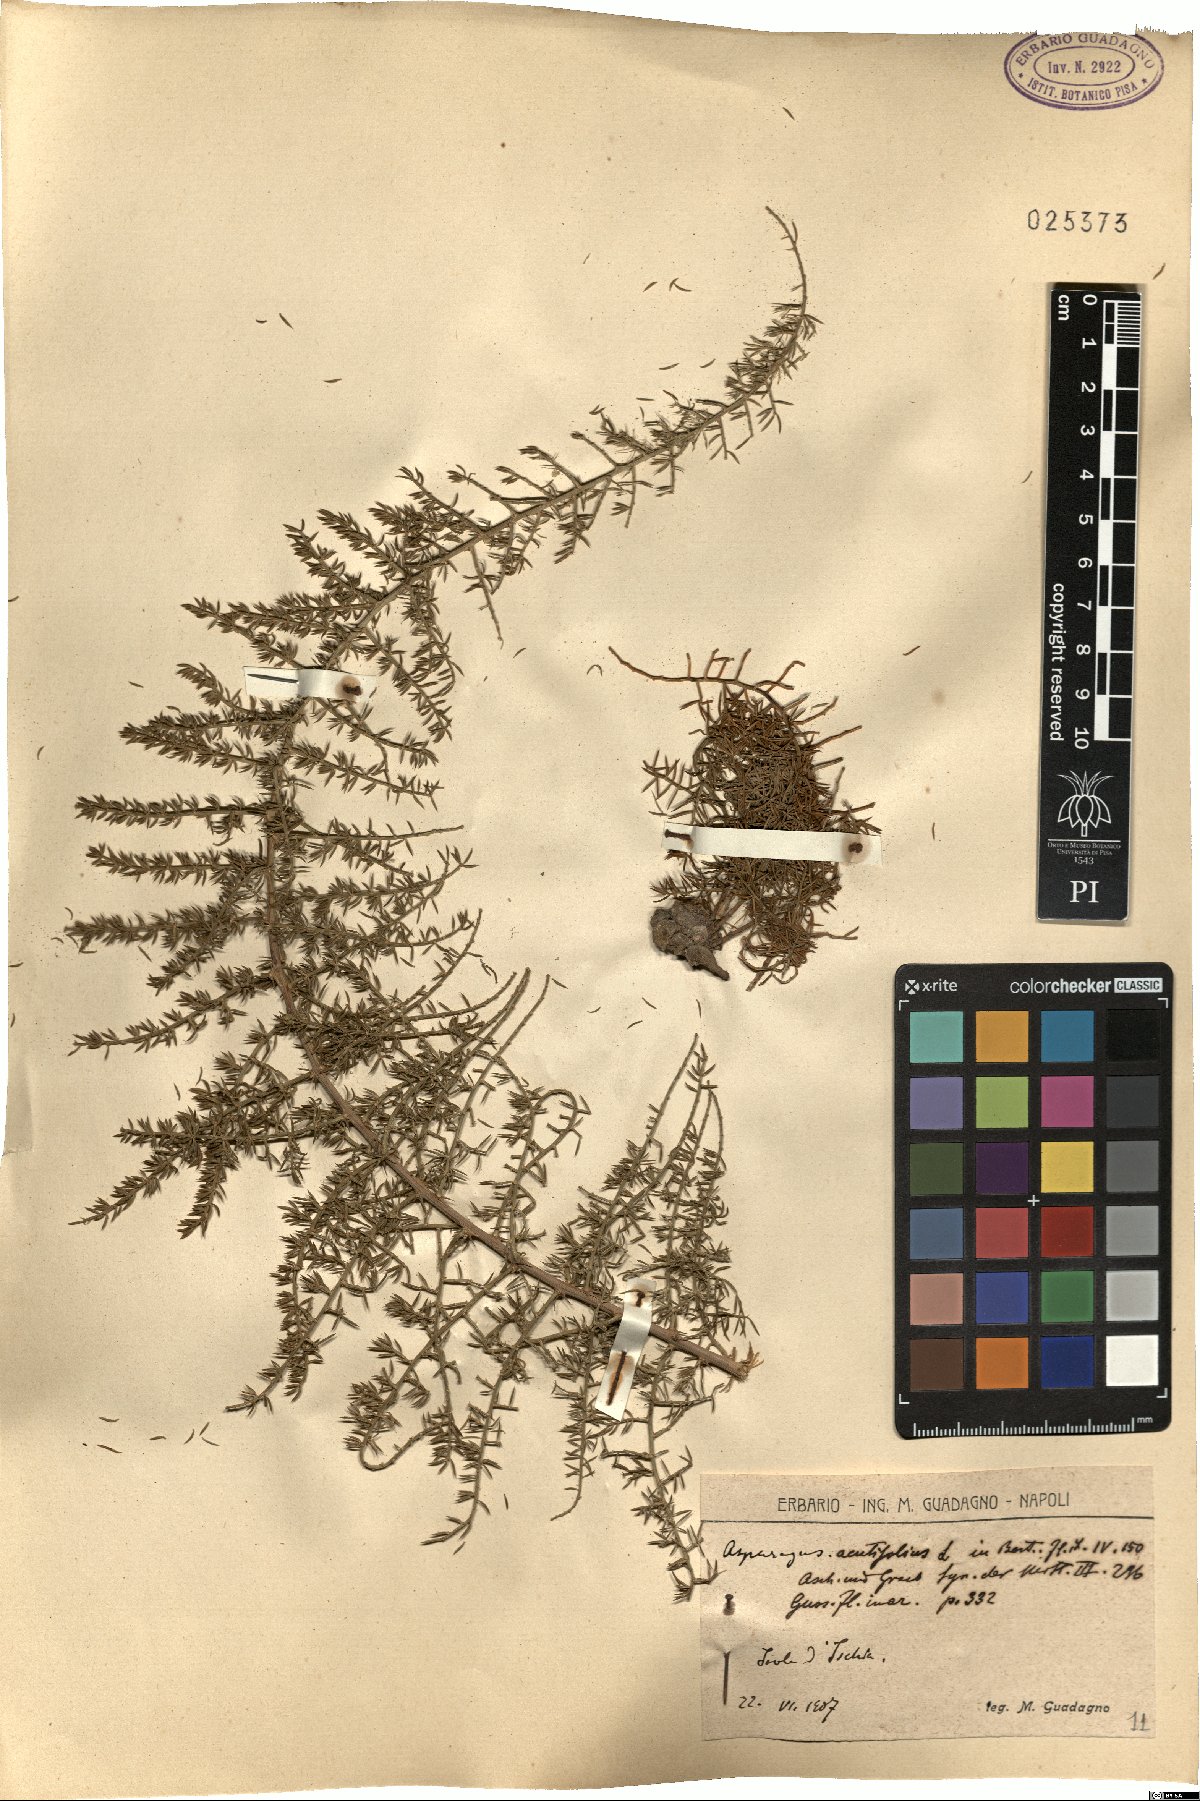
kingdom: Plantae
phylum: Tracheophyta
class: Liliopsida
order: Asparagales
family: Asparagaceae
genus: Asparagus
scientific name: Asparagus acutifolius
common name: Wild asparagus
